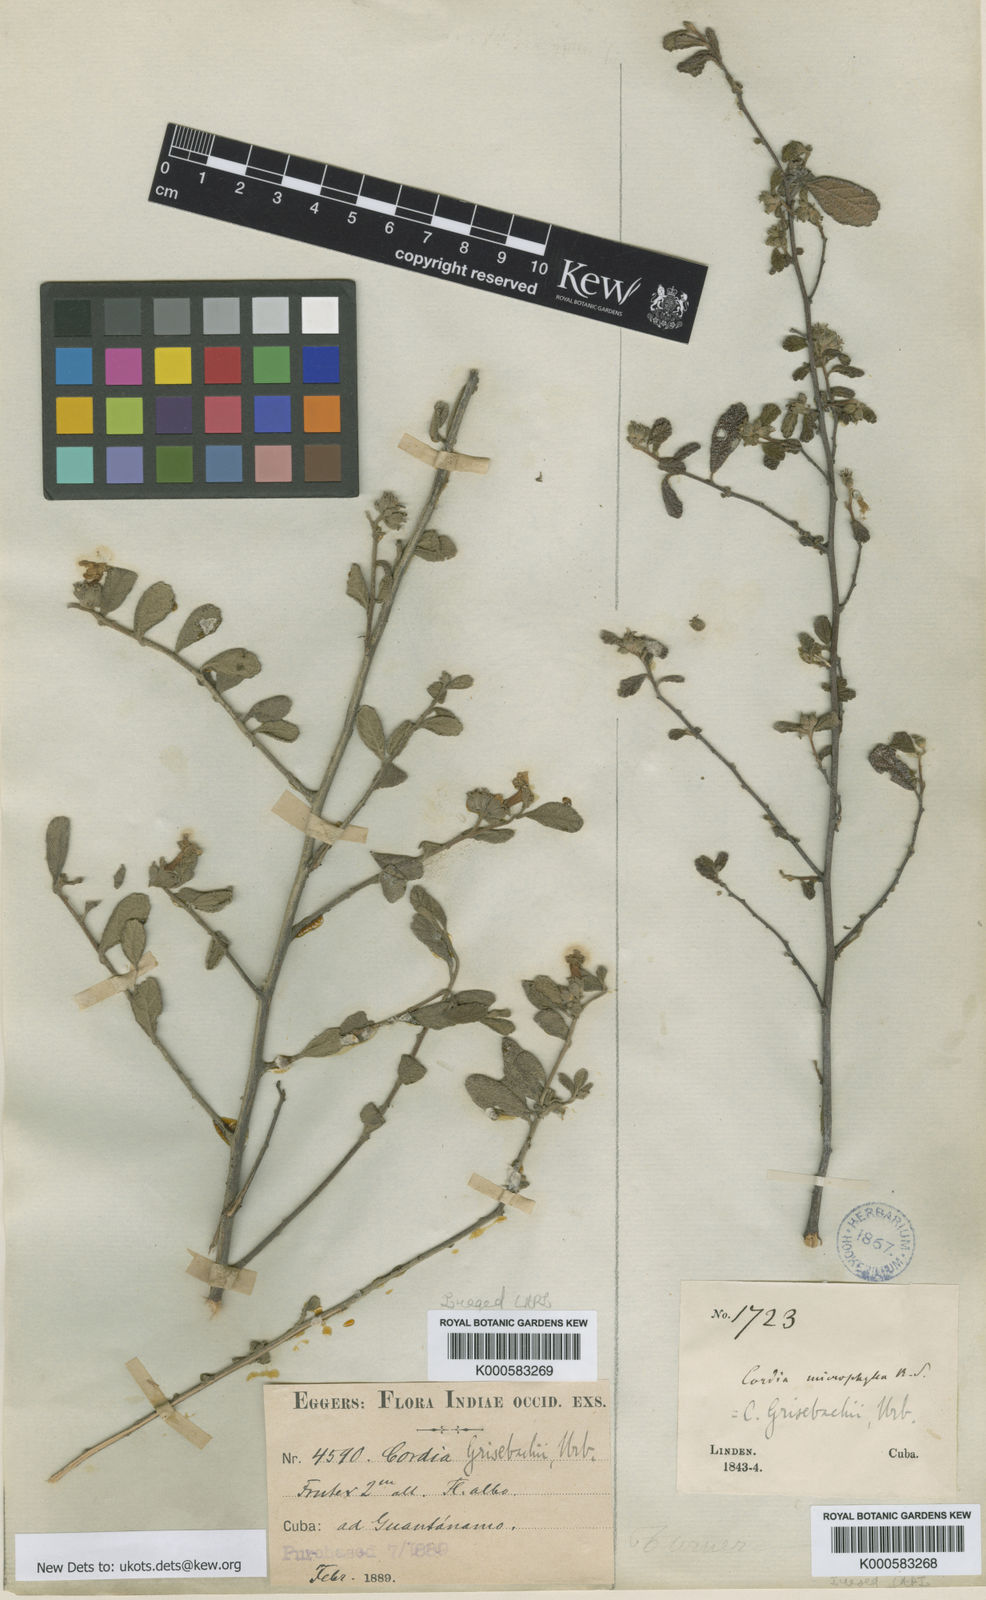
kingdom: Plantae
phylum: Tracheophyta
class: Magnoliopsida
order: Boraginales
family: Cordiaceae
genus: Varronia
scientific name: Varronia grisebachii
